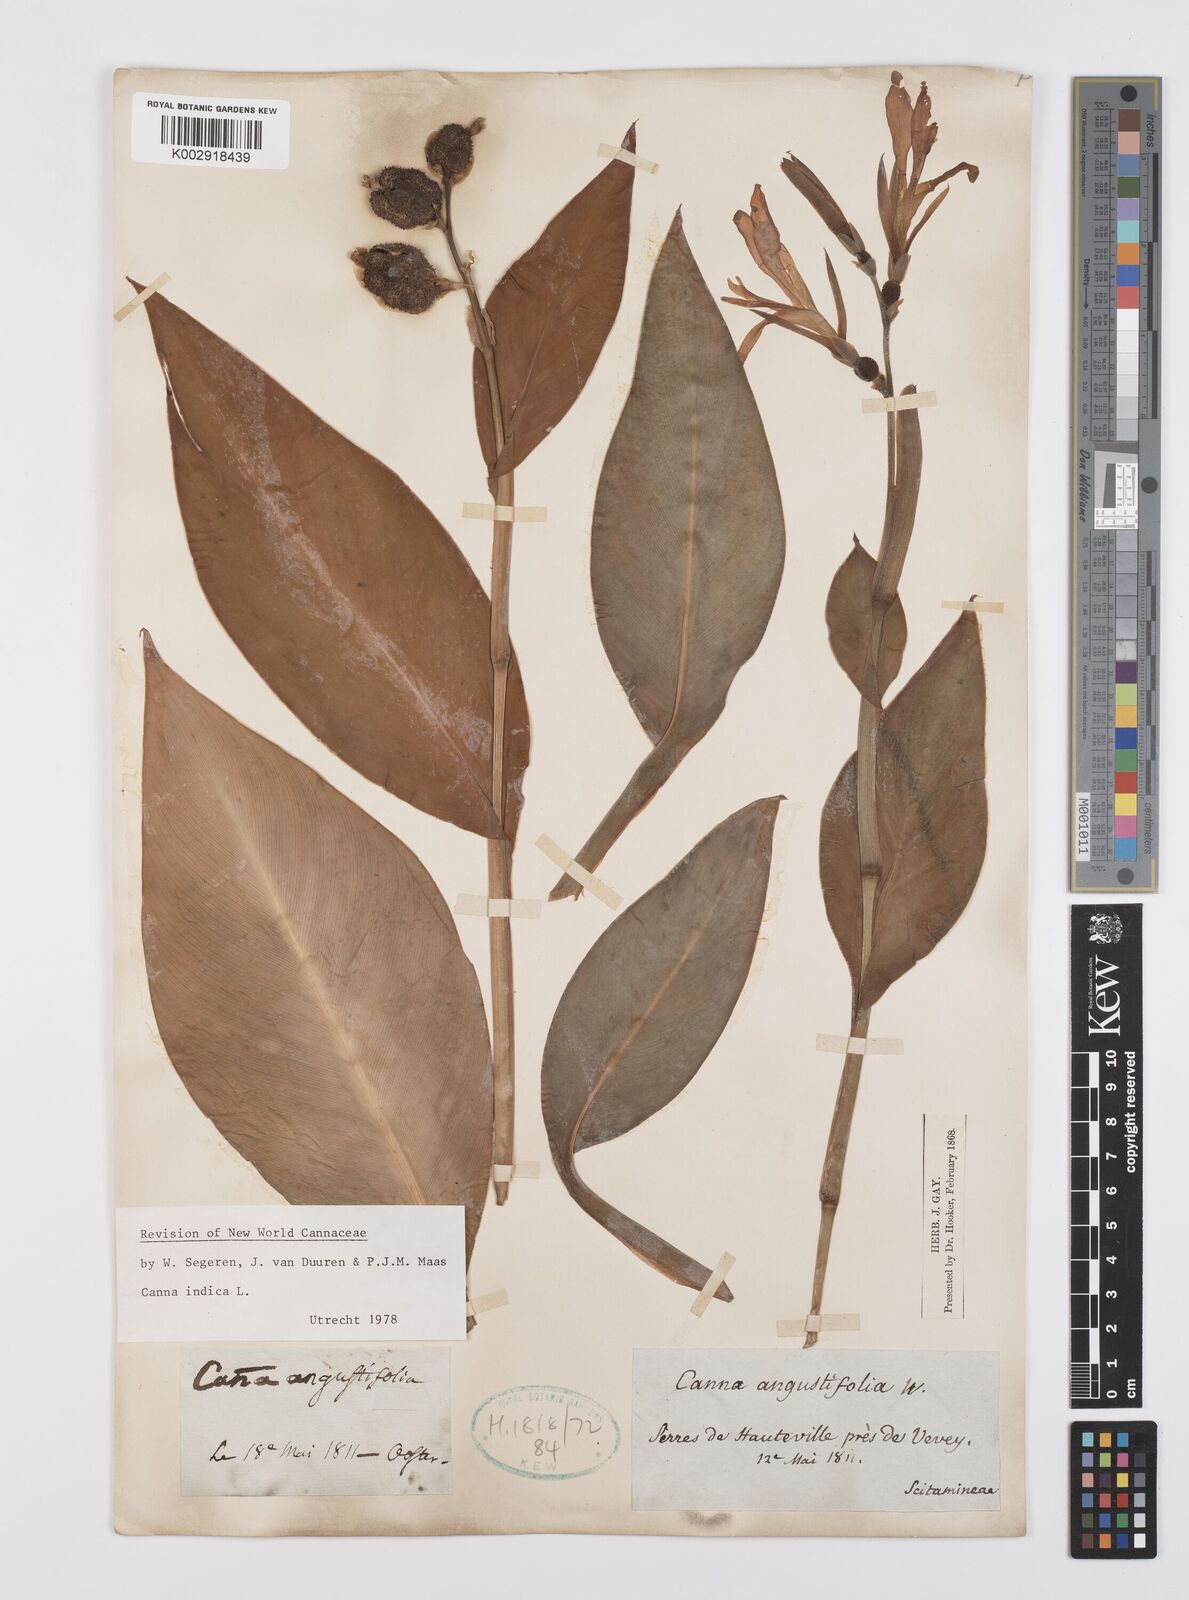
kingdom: Plantae
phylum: Tracheophyta
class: Liliopsida
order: Zingiberales
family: Cannaceae
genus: Canna
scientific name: Canna indica
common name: Indian shot
